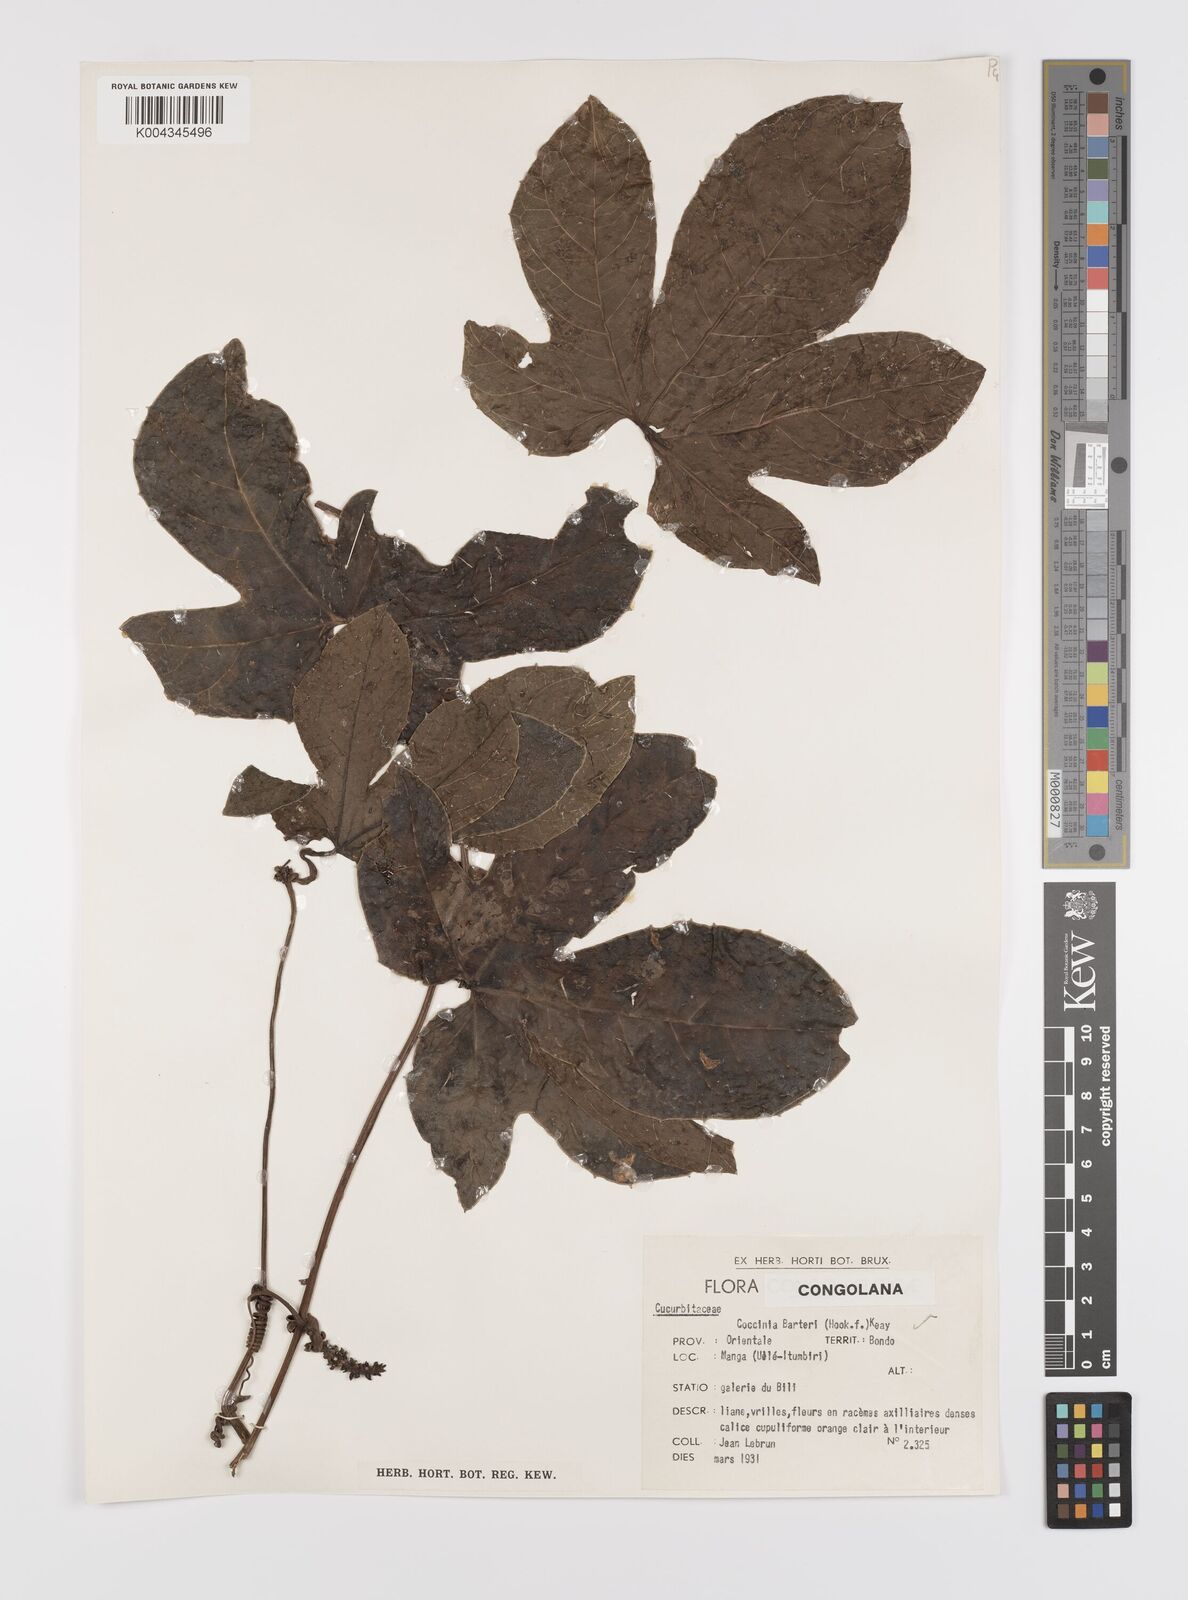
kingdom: Plantae
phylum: Tracheophyta
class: Magnoliopsida
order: Cucurbitales
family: Cucurbitaceae
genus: Coccinia
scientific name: Coccinia barteri
